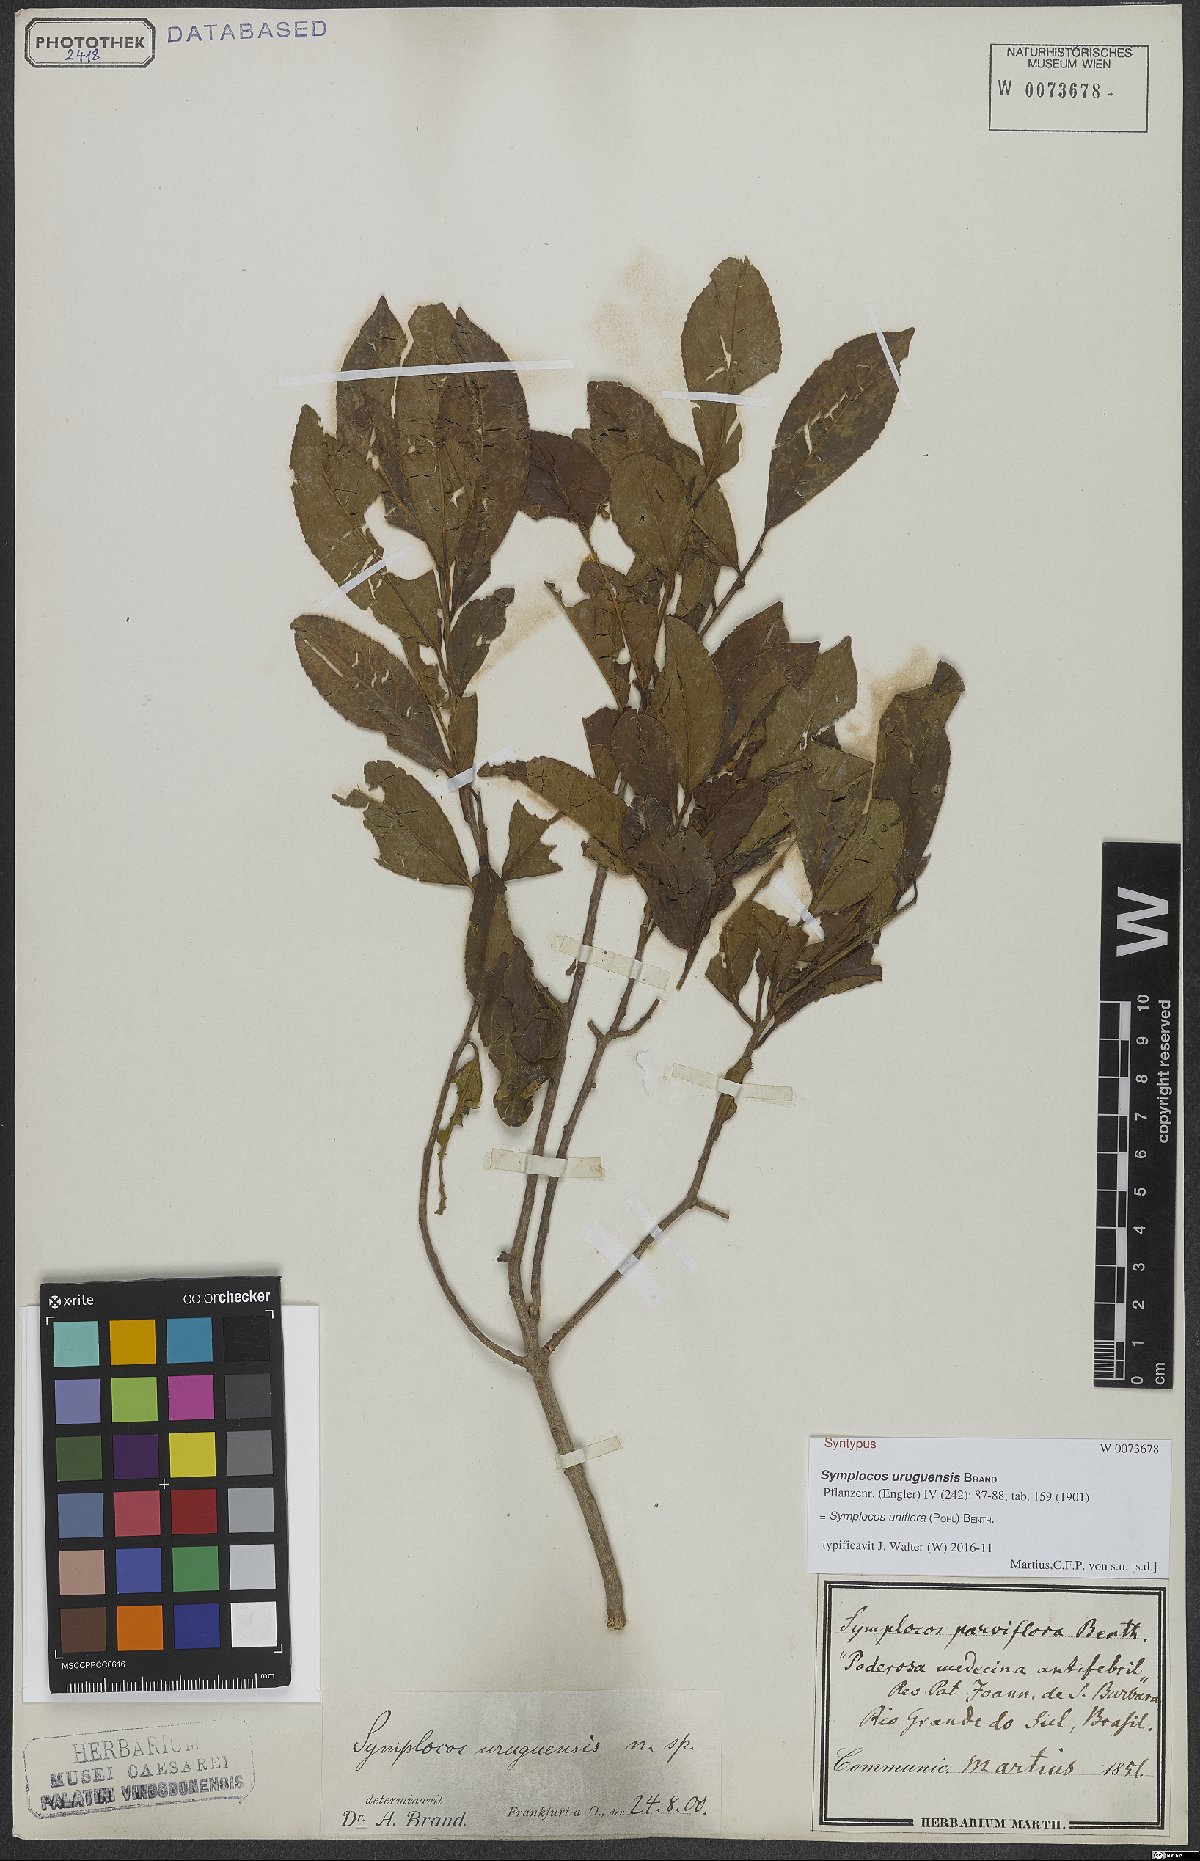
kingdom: Plantae
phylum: Tracheophyta
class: Magnoliopsida
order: Ericales
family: Symplocaceae
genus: Symplocos
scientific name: Symplocos uniflora
